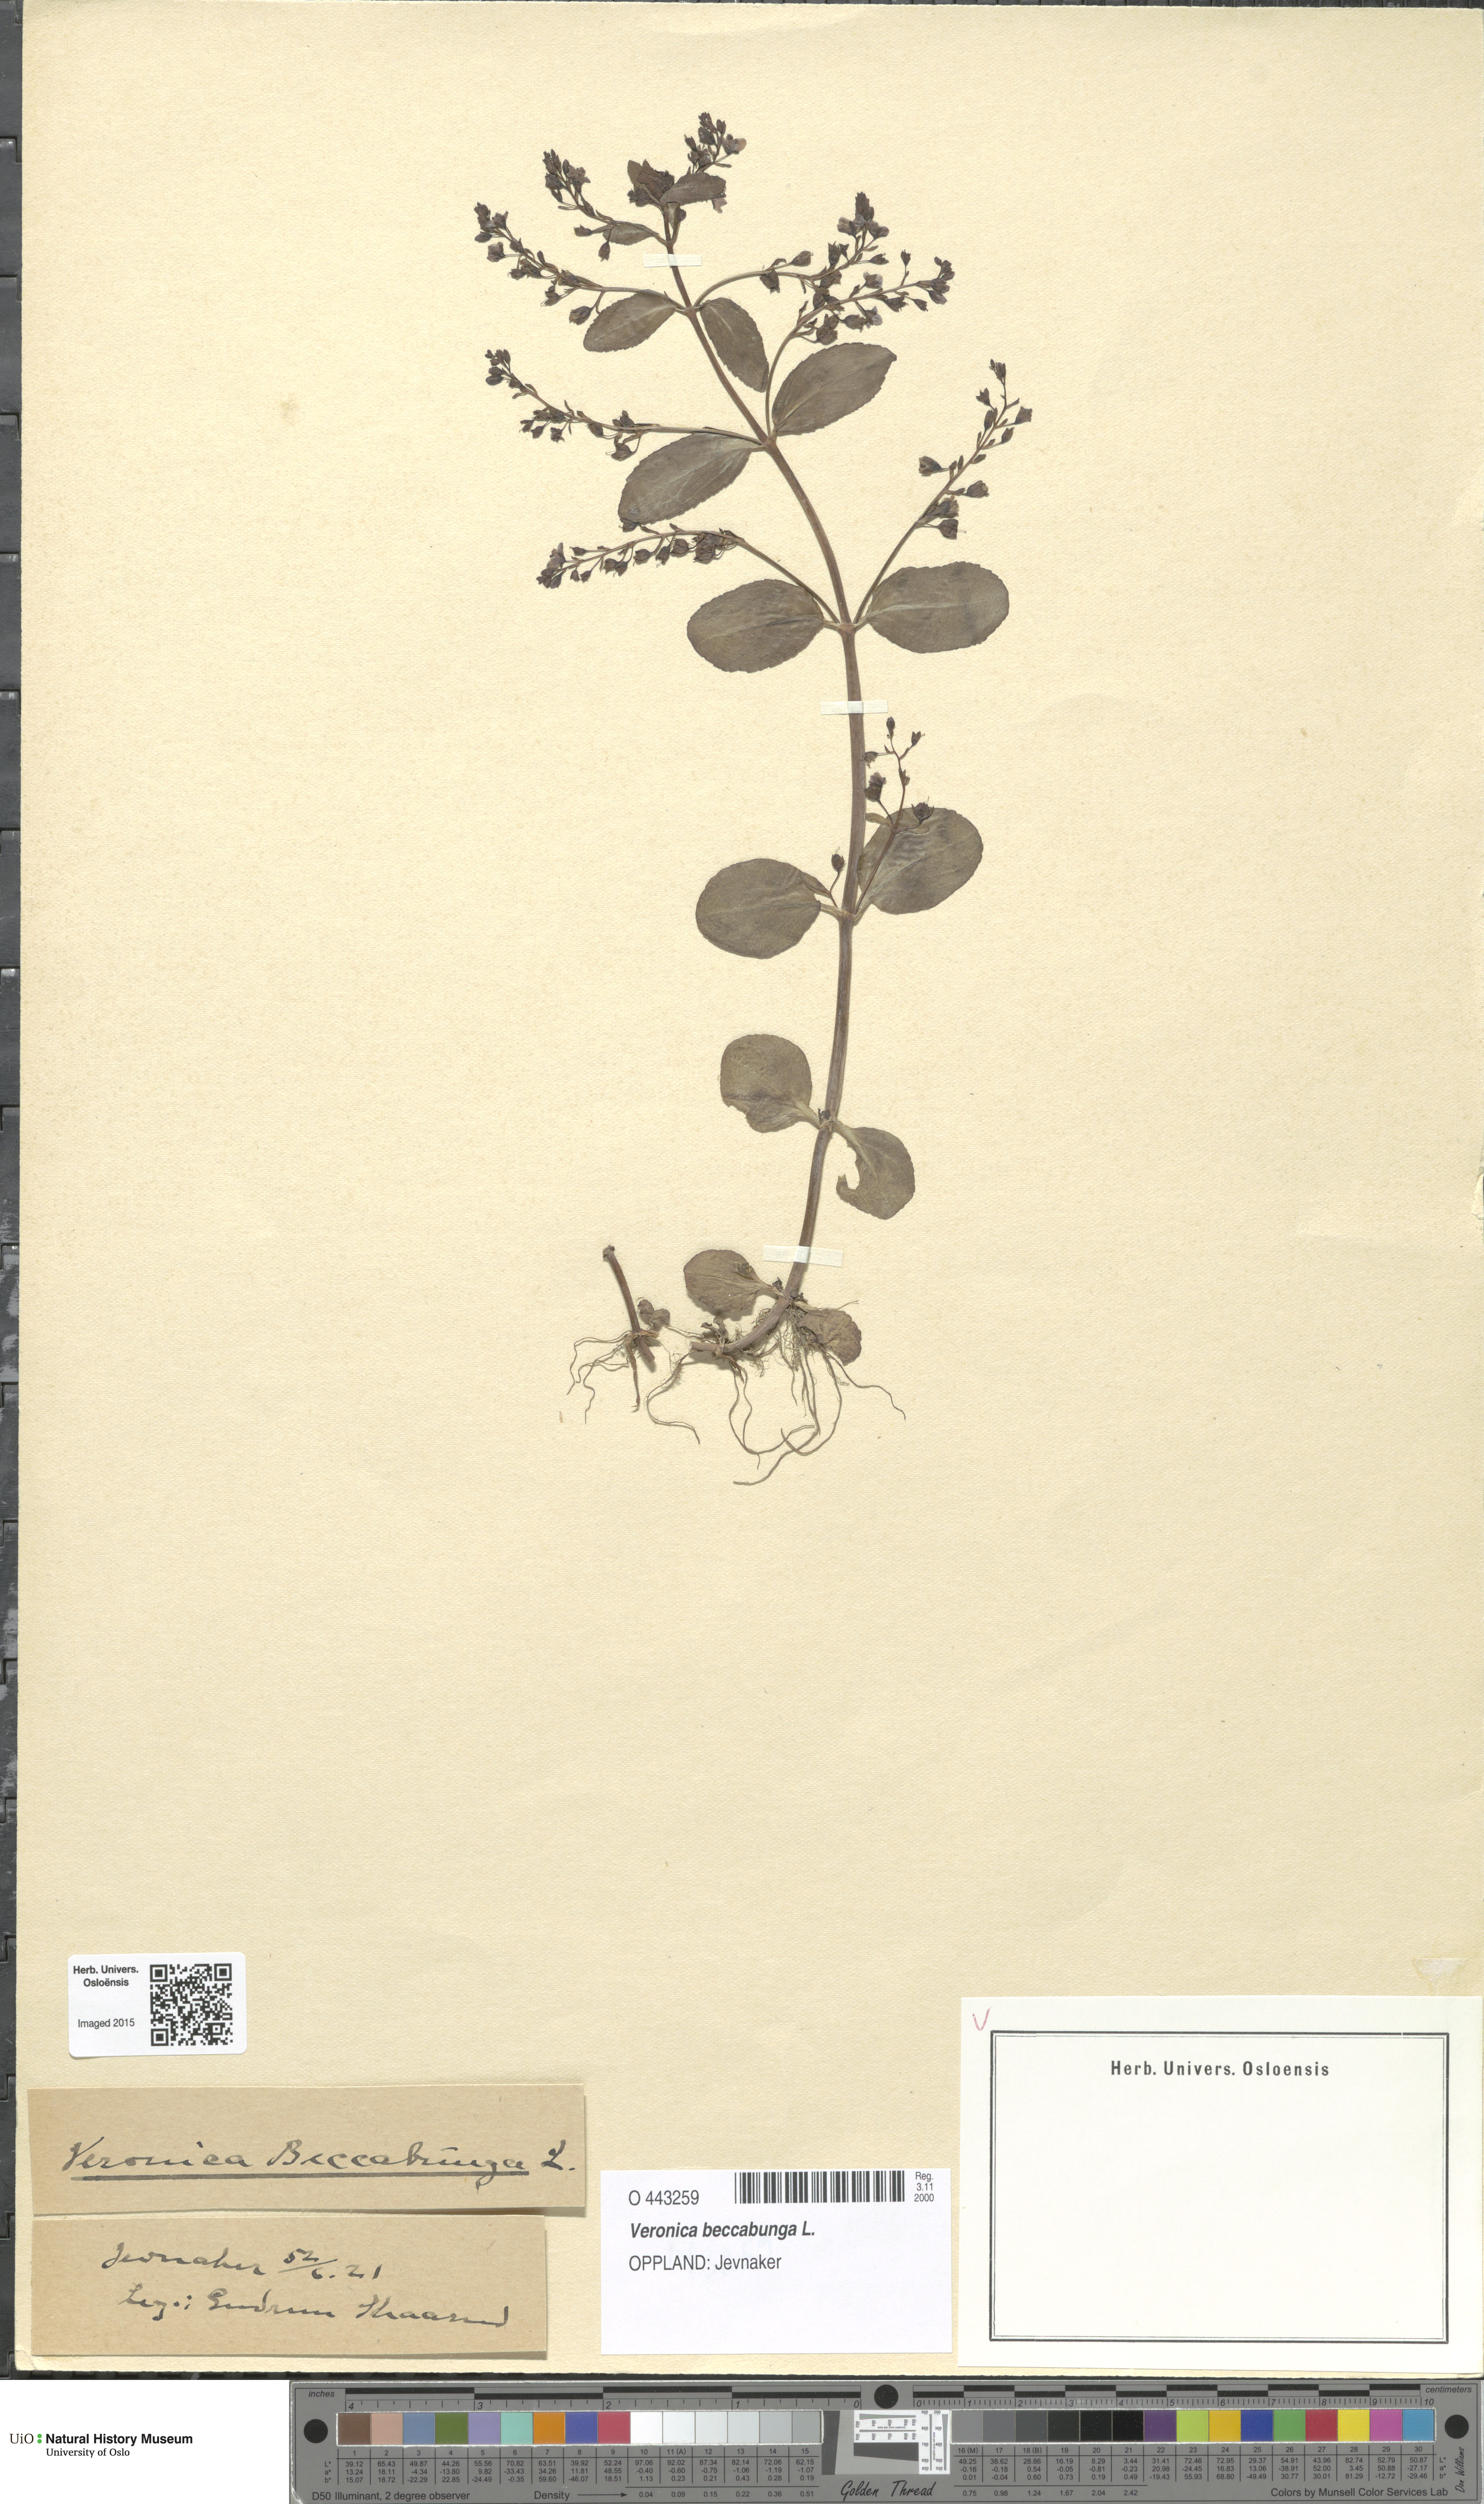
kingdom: Plantae
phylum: Tracheophyta
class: Magnoliopsida
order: Lamiales
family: Plantaginaceae
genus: Veronica
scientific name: Veronica beccabunga
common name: Brooklime
